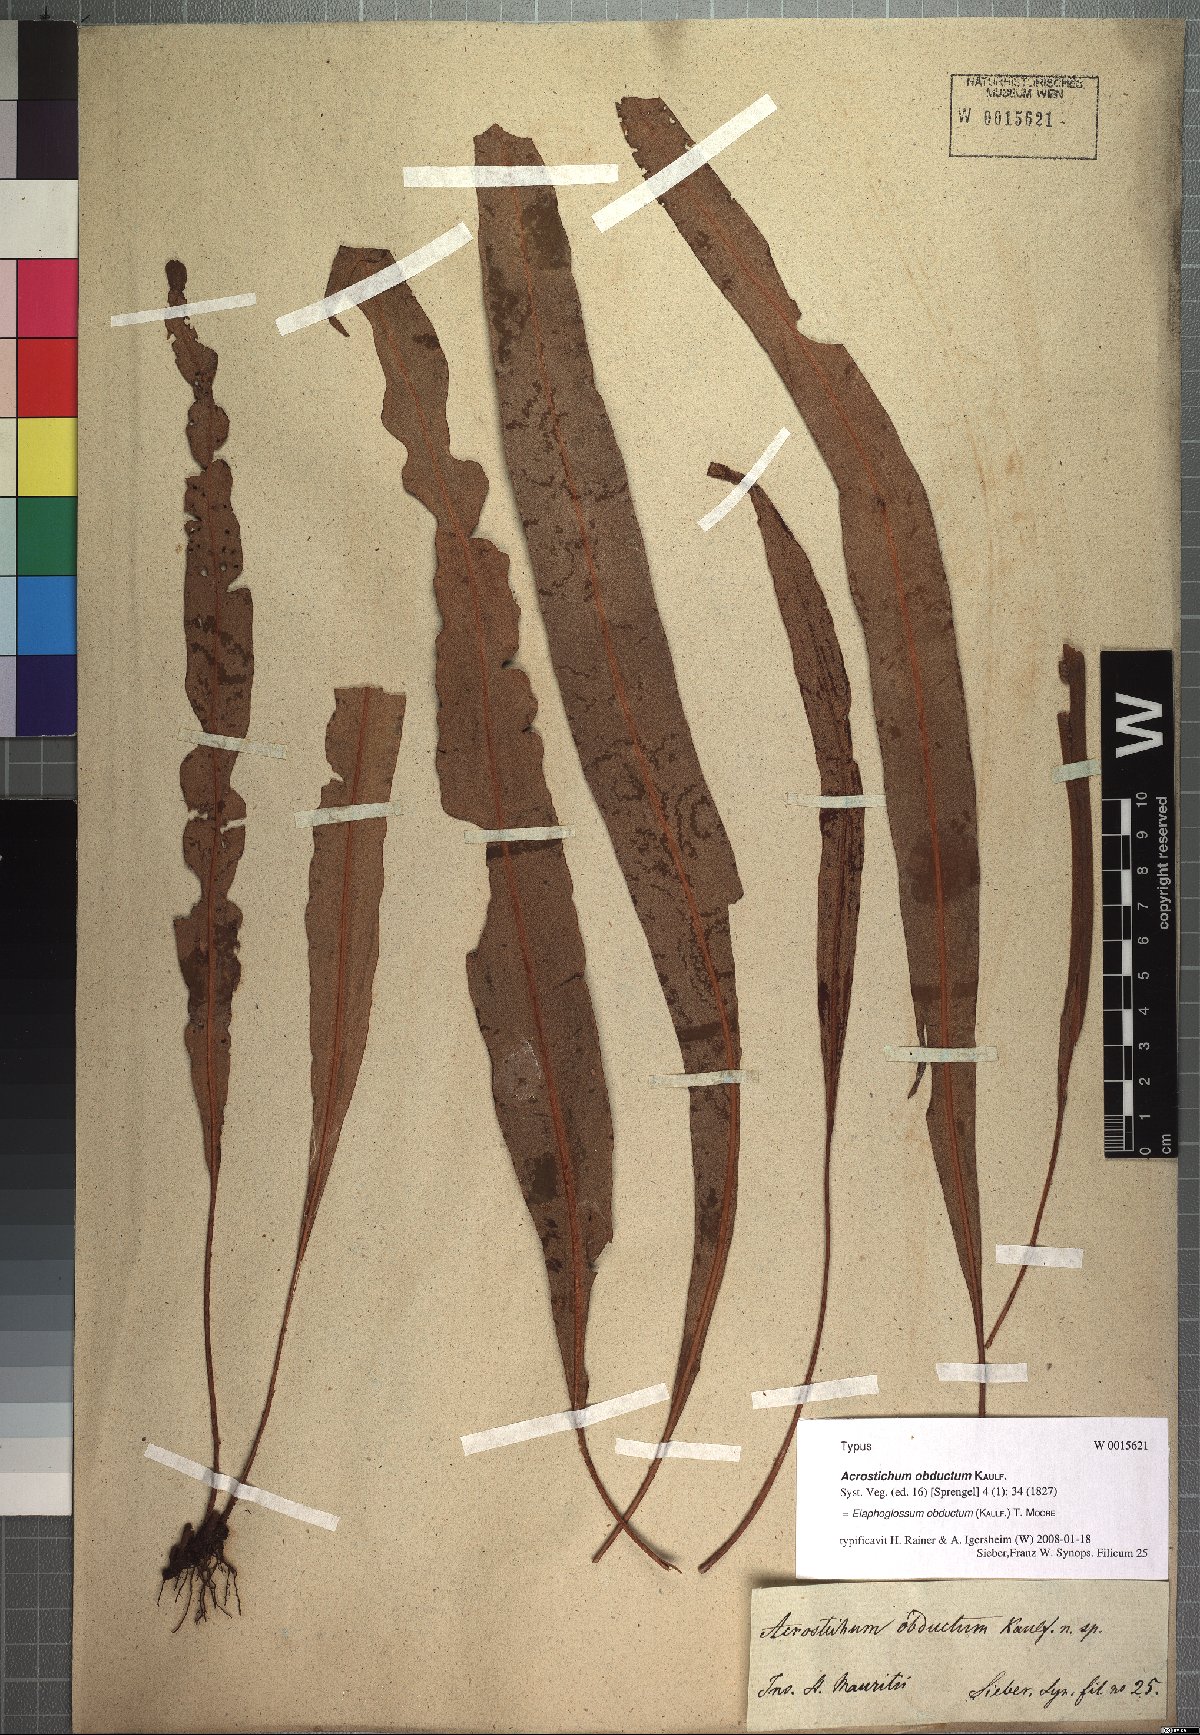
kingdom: Plantae
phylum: Tracheophyta
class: Polypodiopsida
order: Polypodiales
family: Dryopteridaceae
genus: Elaphoglossum
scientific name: Elaphoglossum heterolepis
